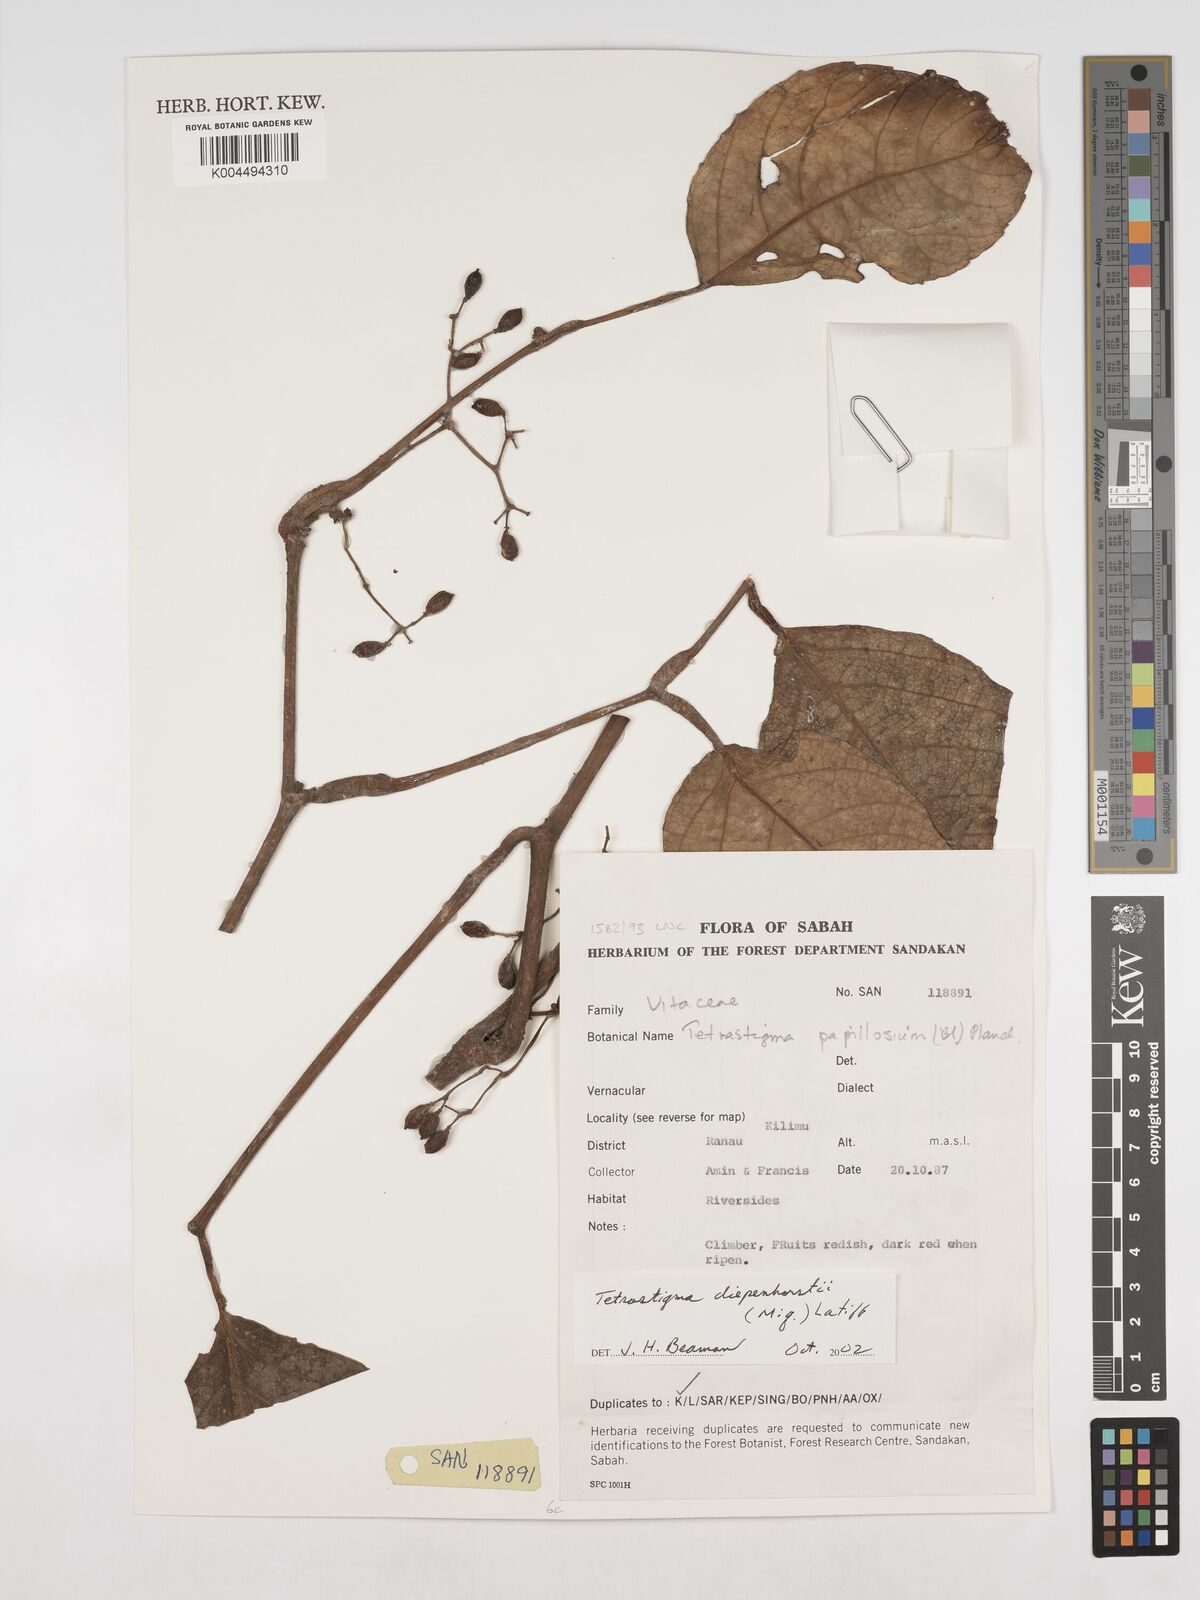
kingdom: Plantae
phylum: Tracheophyta
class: Magnoliopsida
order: Vitales
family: Vitaceae
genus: Tetrastigma
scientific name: Tetrastigma diepenhorstii
